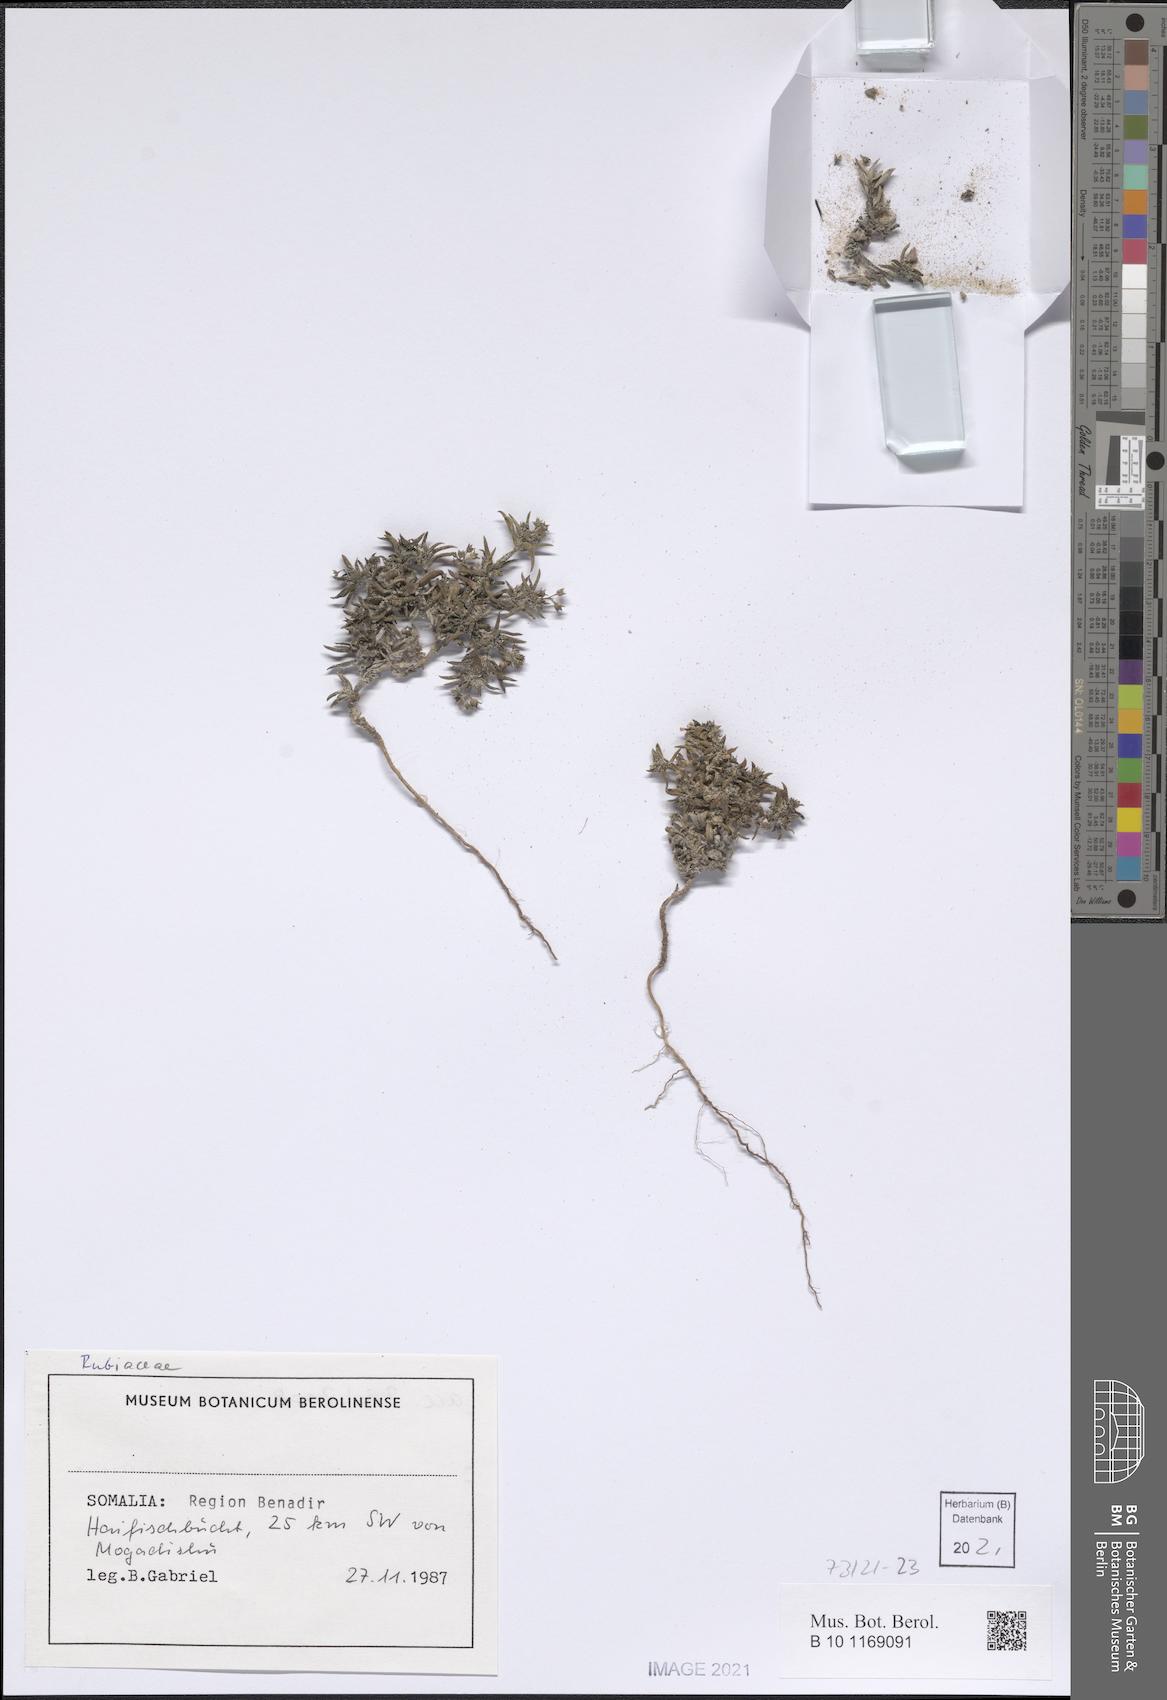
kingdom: Plantae
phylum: Tracheophyta
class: Magnoliopsida
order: Gentianales
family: Rubiaceae
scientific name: Rubiaceae
